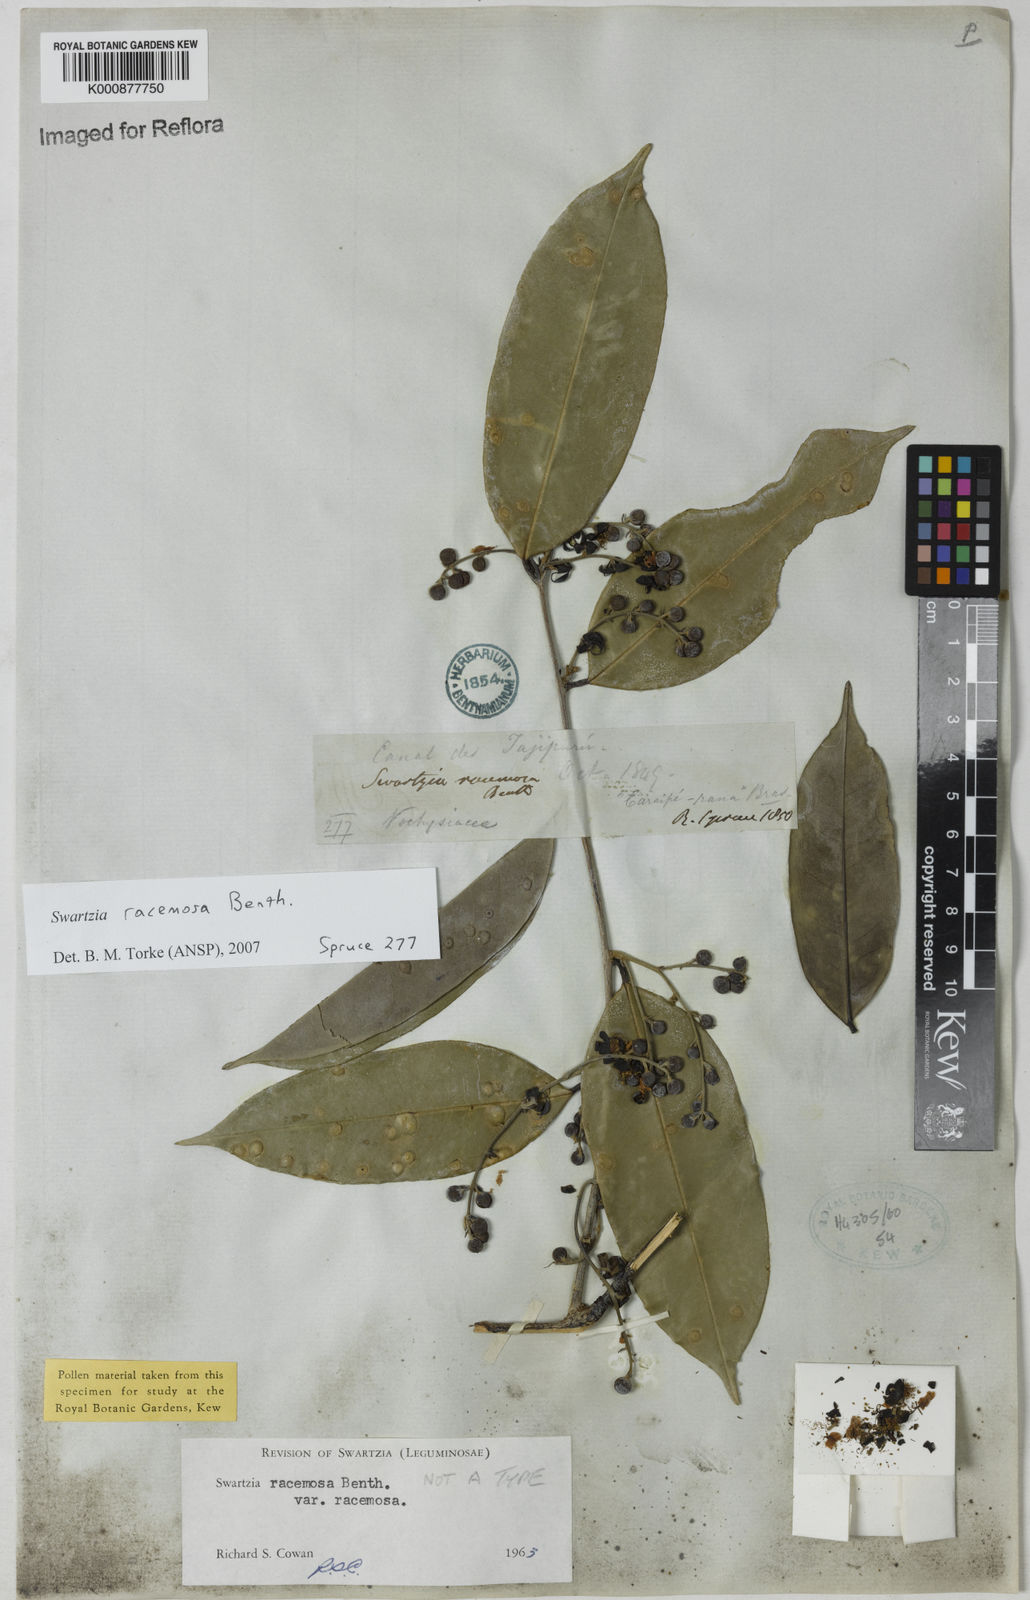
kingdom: Plantae
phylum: Tracheophyta
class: Magnoliopsida
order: Fabales
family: Fabaceae
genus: Swartzia
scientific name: Swartzia racemosa
